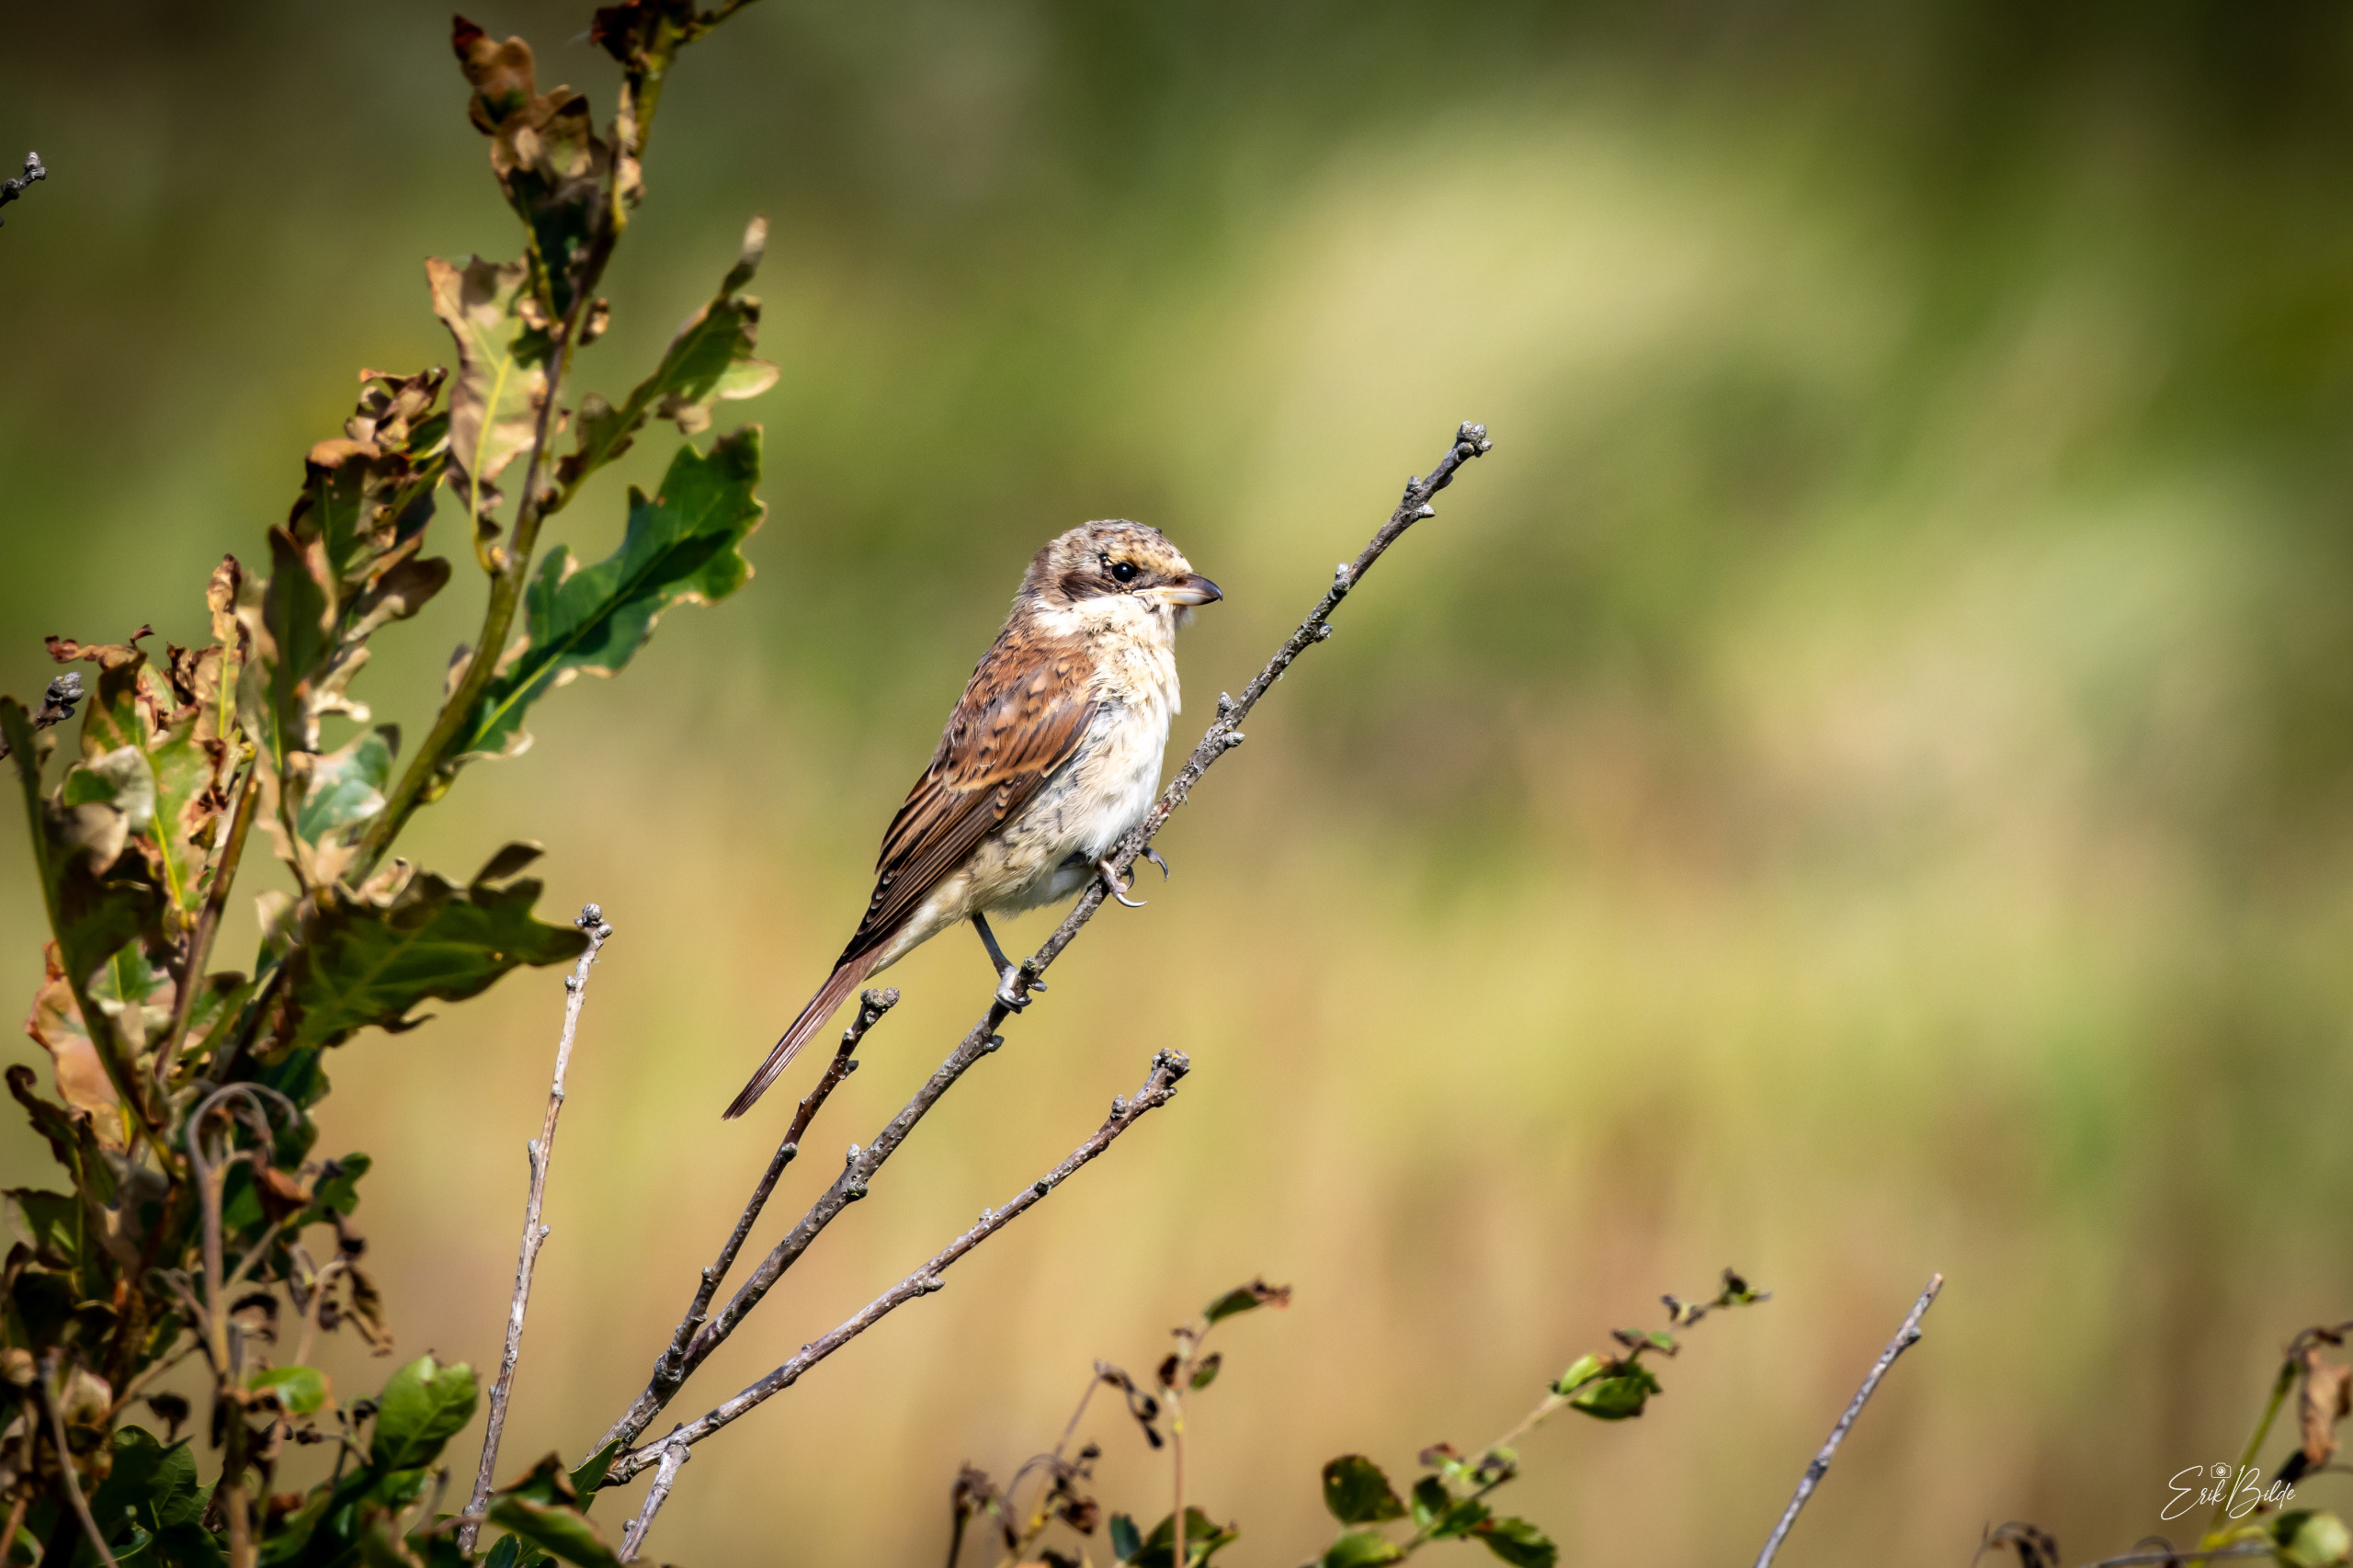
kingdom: Animalia
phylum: Chordata
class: Aves
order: Passeriformes
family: Laniidae
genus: Lanius
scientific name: Lanius collurio
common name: Rødrygget tornskade
